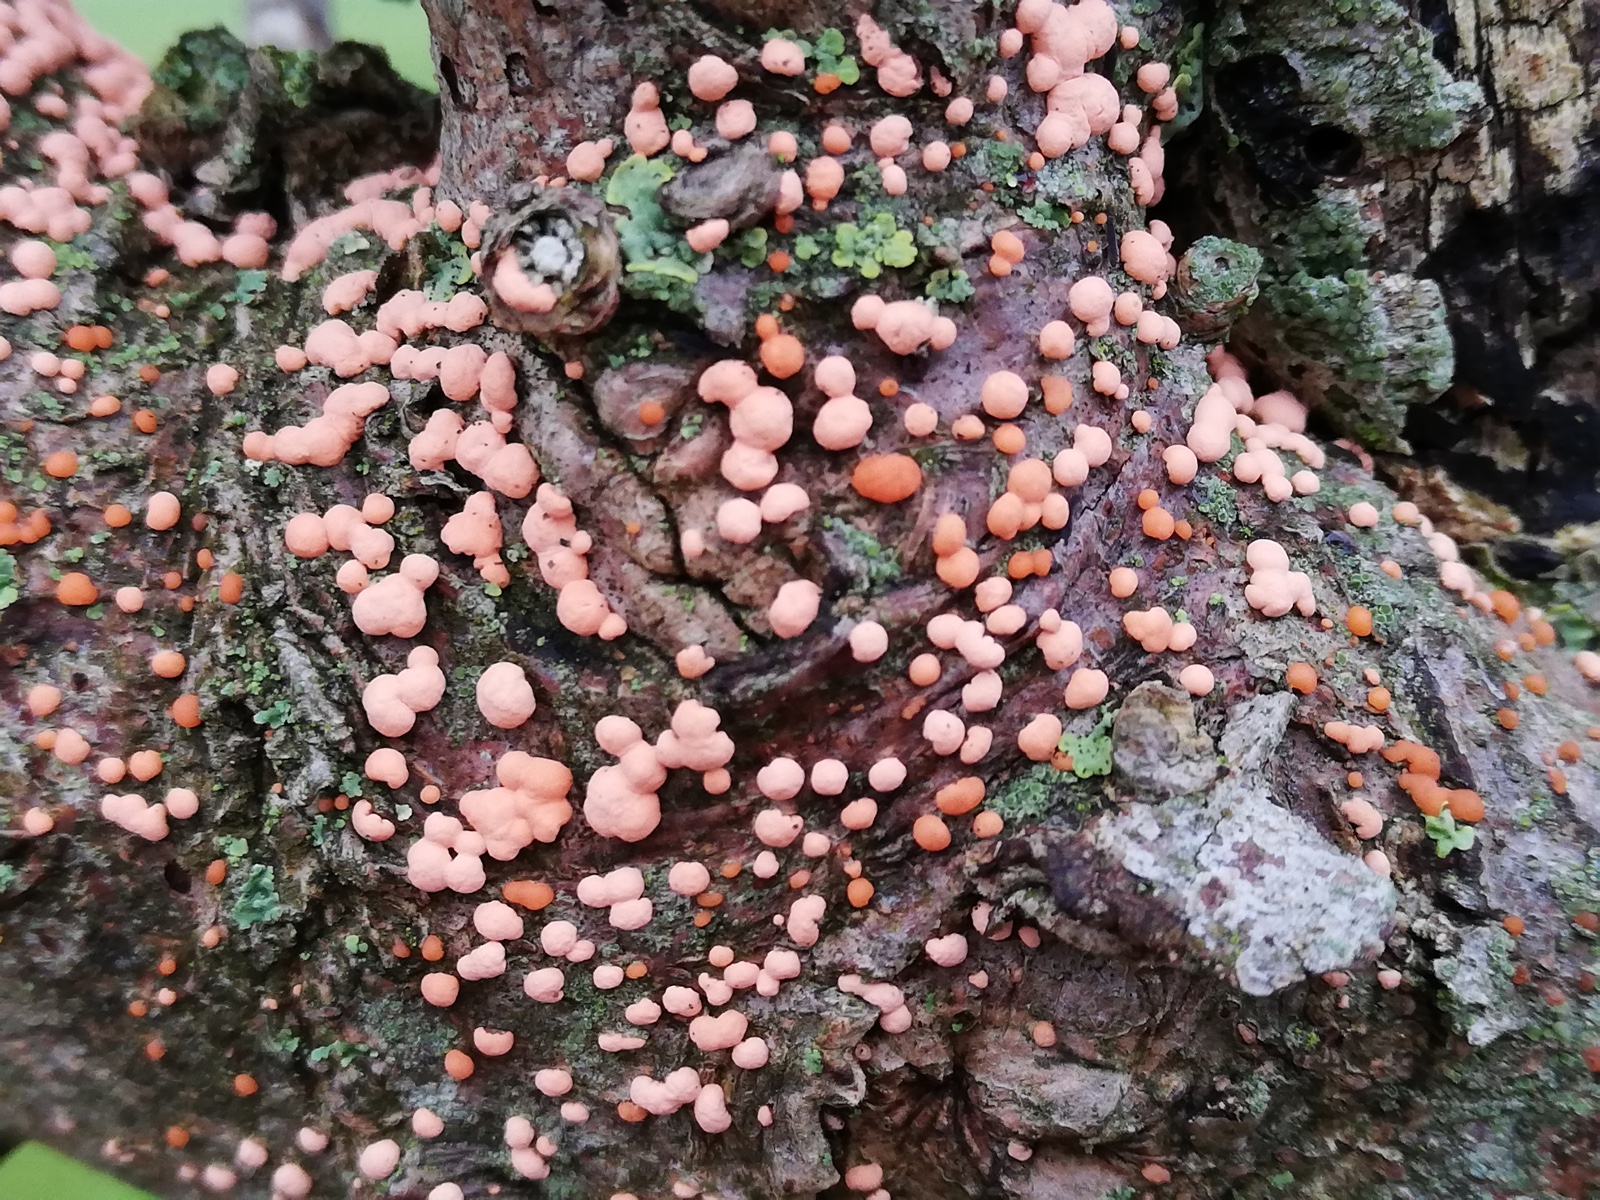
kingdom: Fungi
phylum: Ascomycota
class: Sordariomycetes
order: Hypocreales
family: Nectriaceae
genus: Nectria
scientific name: Nectria cinnabarina
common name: almindelig cinnobersvamp
